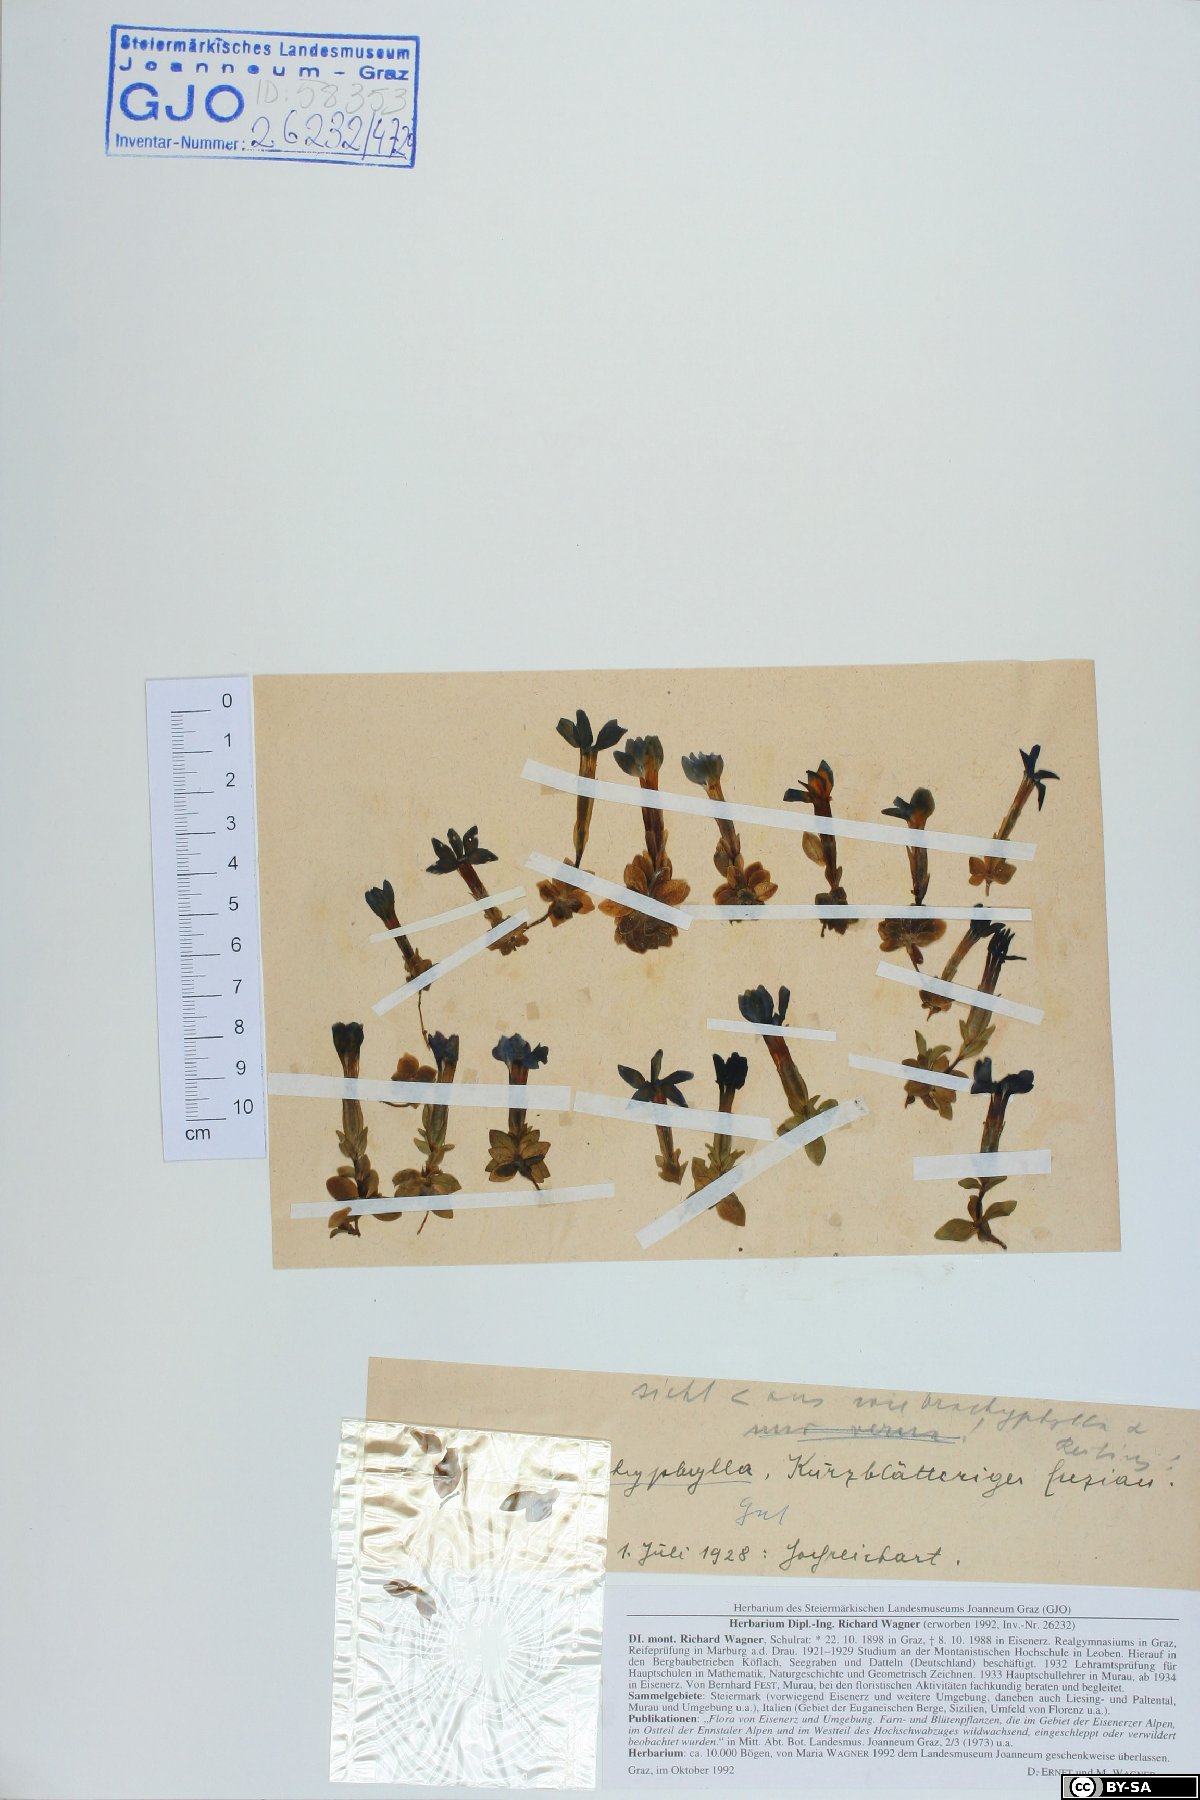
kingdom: Plantae
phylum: Tracheophyta
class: Magnoliopsida
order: Gentianales
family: Gentianaceae
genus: Gentiana
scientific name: Gentiana brachyphylla
